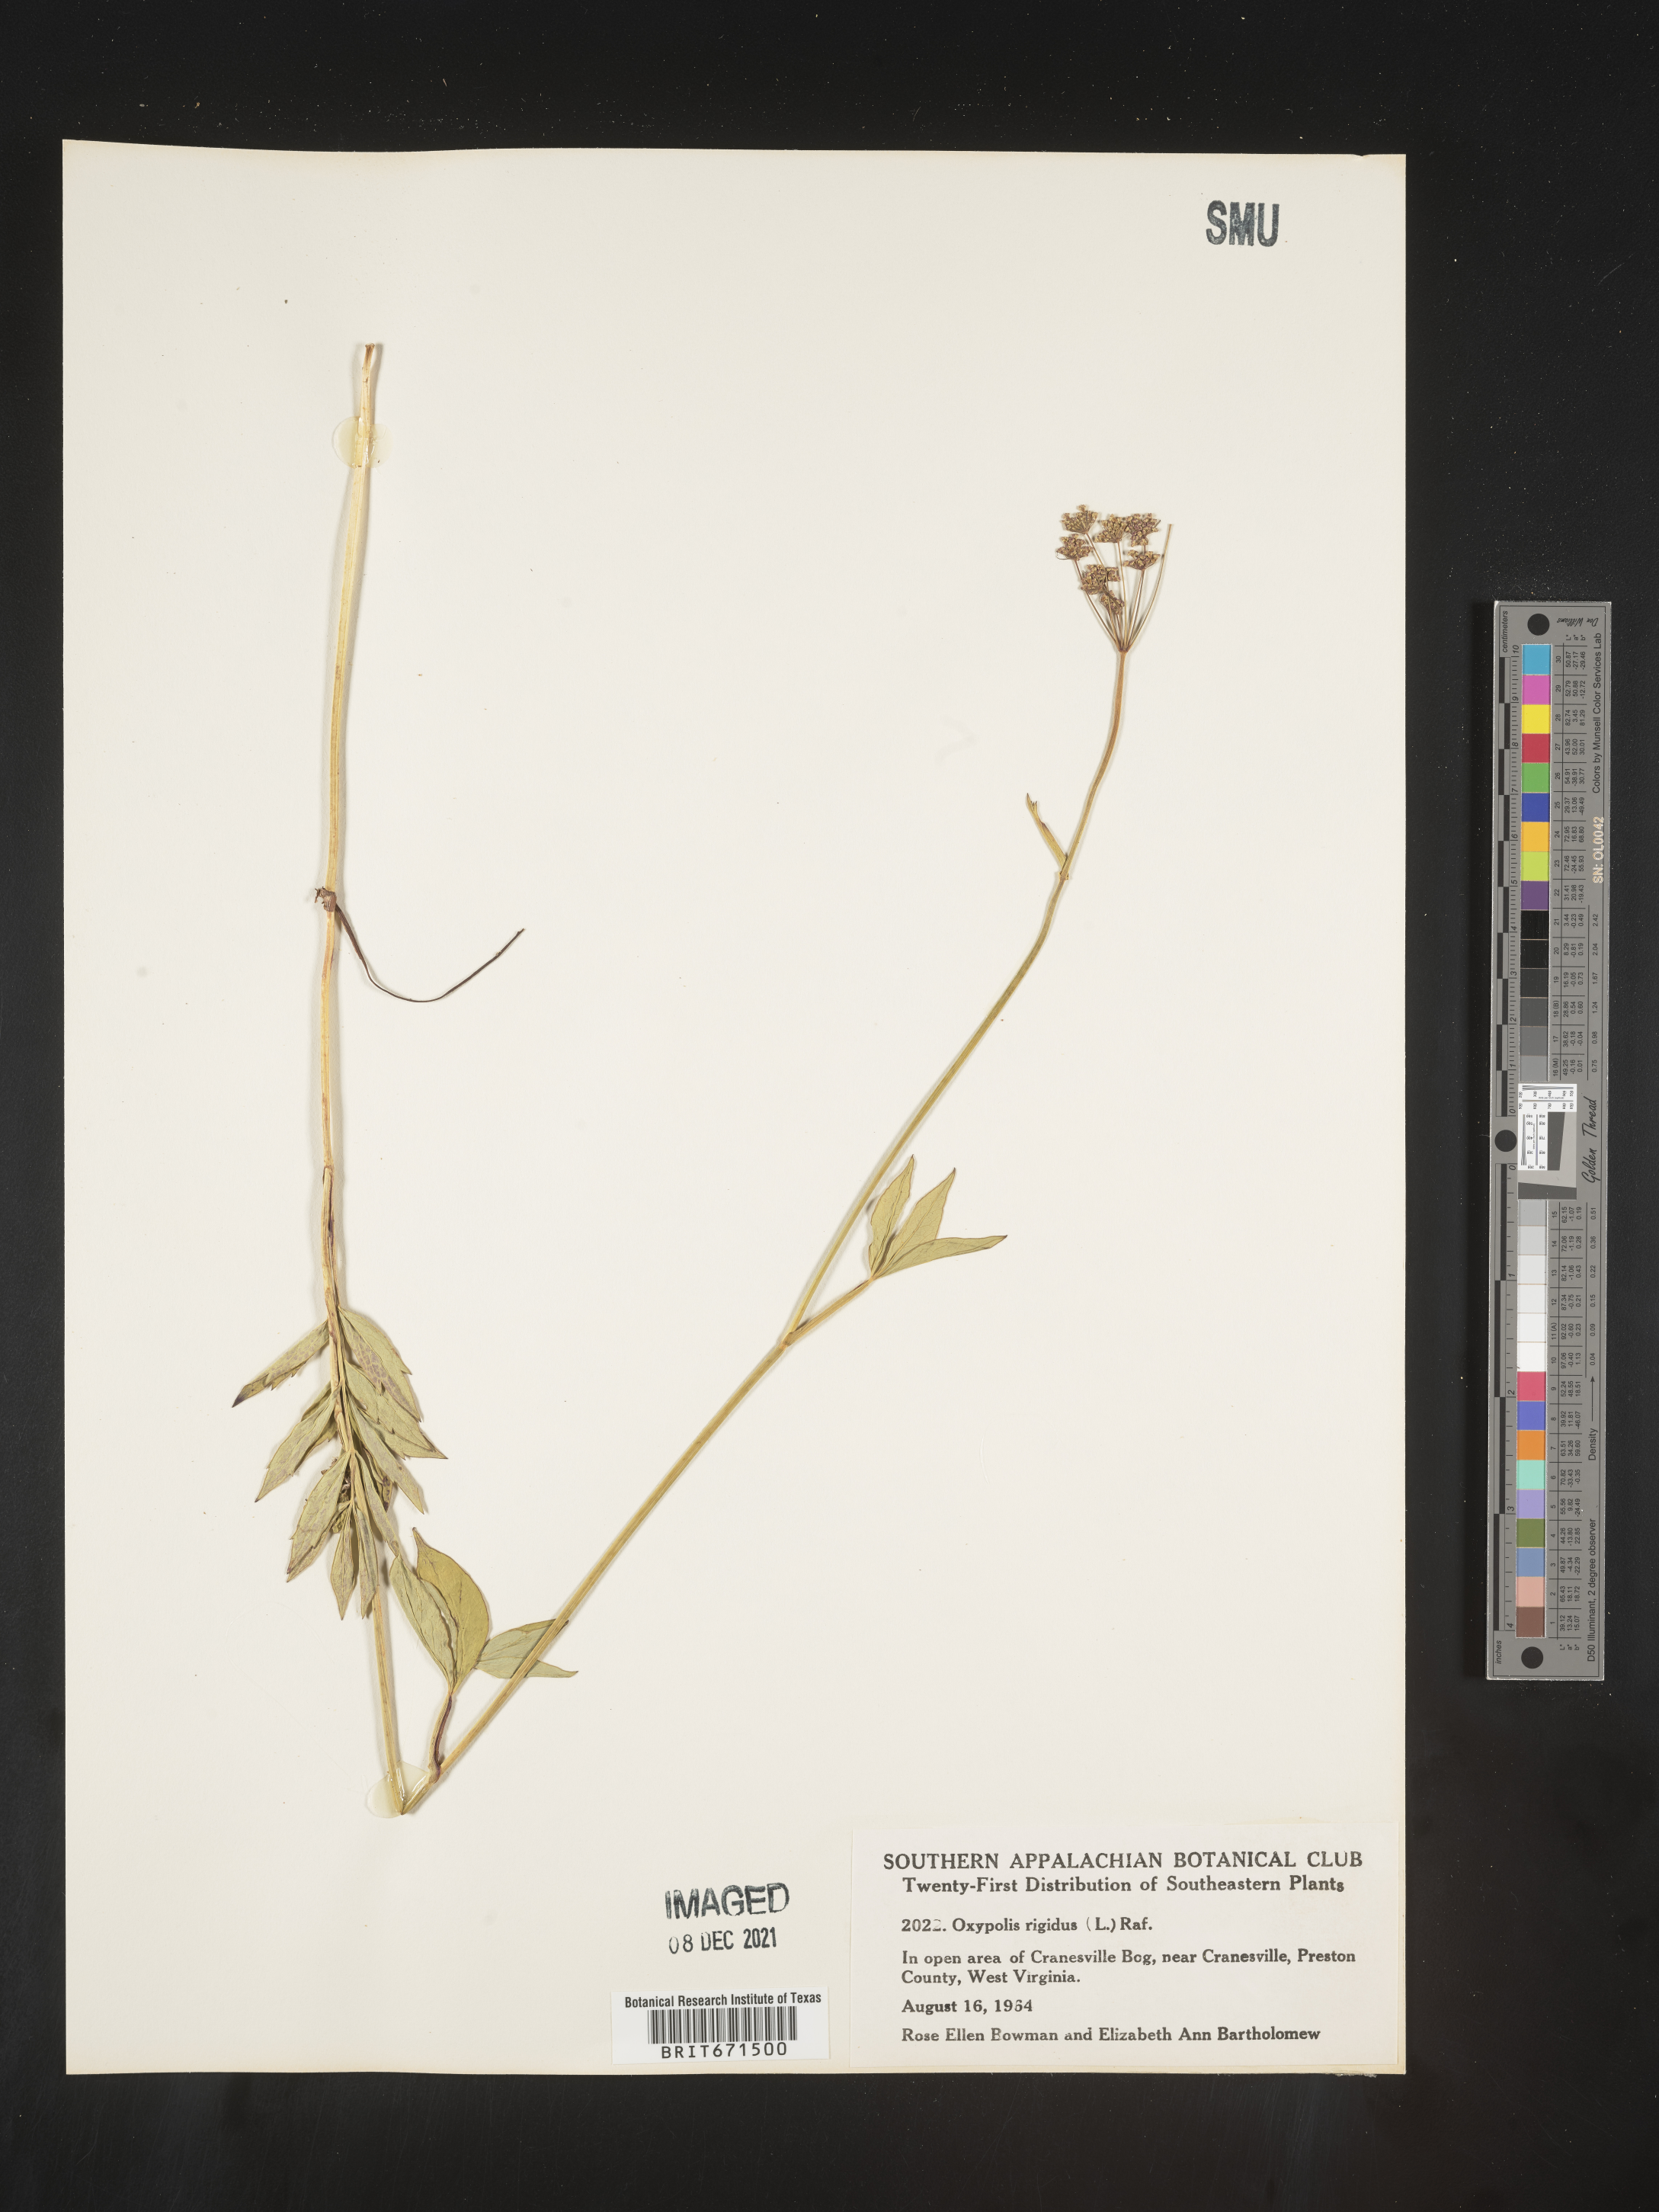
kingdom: Plantae
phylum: Tracheophyta
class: Magnoliopsida
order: Apiales
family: Apiaceae
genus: Oxypolis
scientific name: Oxypolis rigidior
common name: Cowbane
